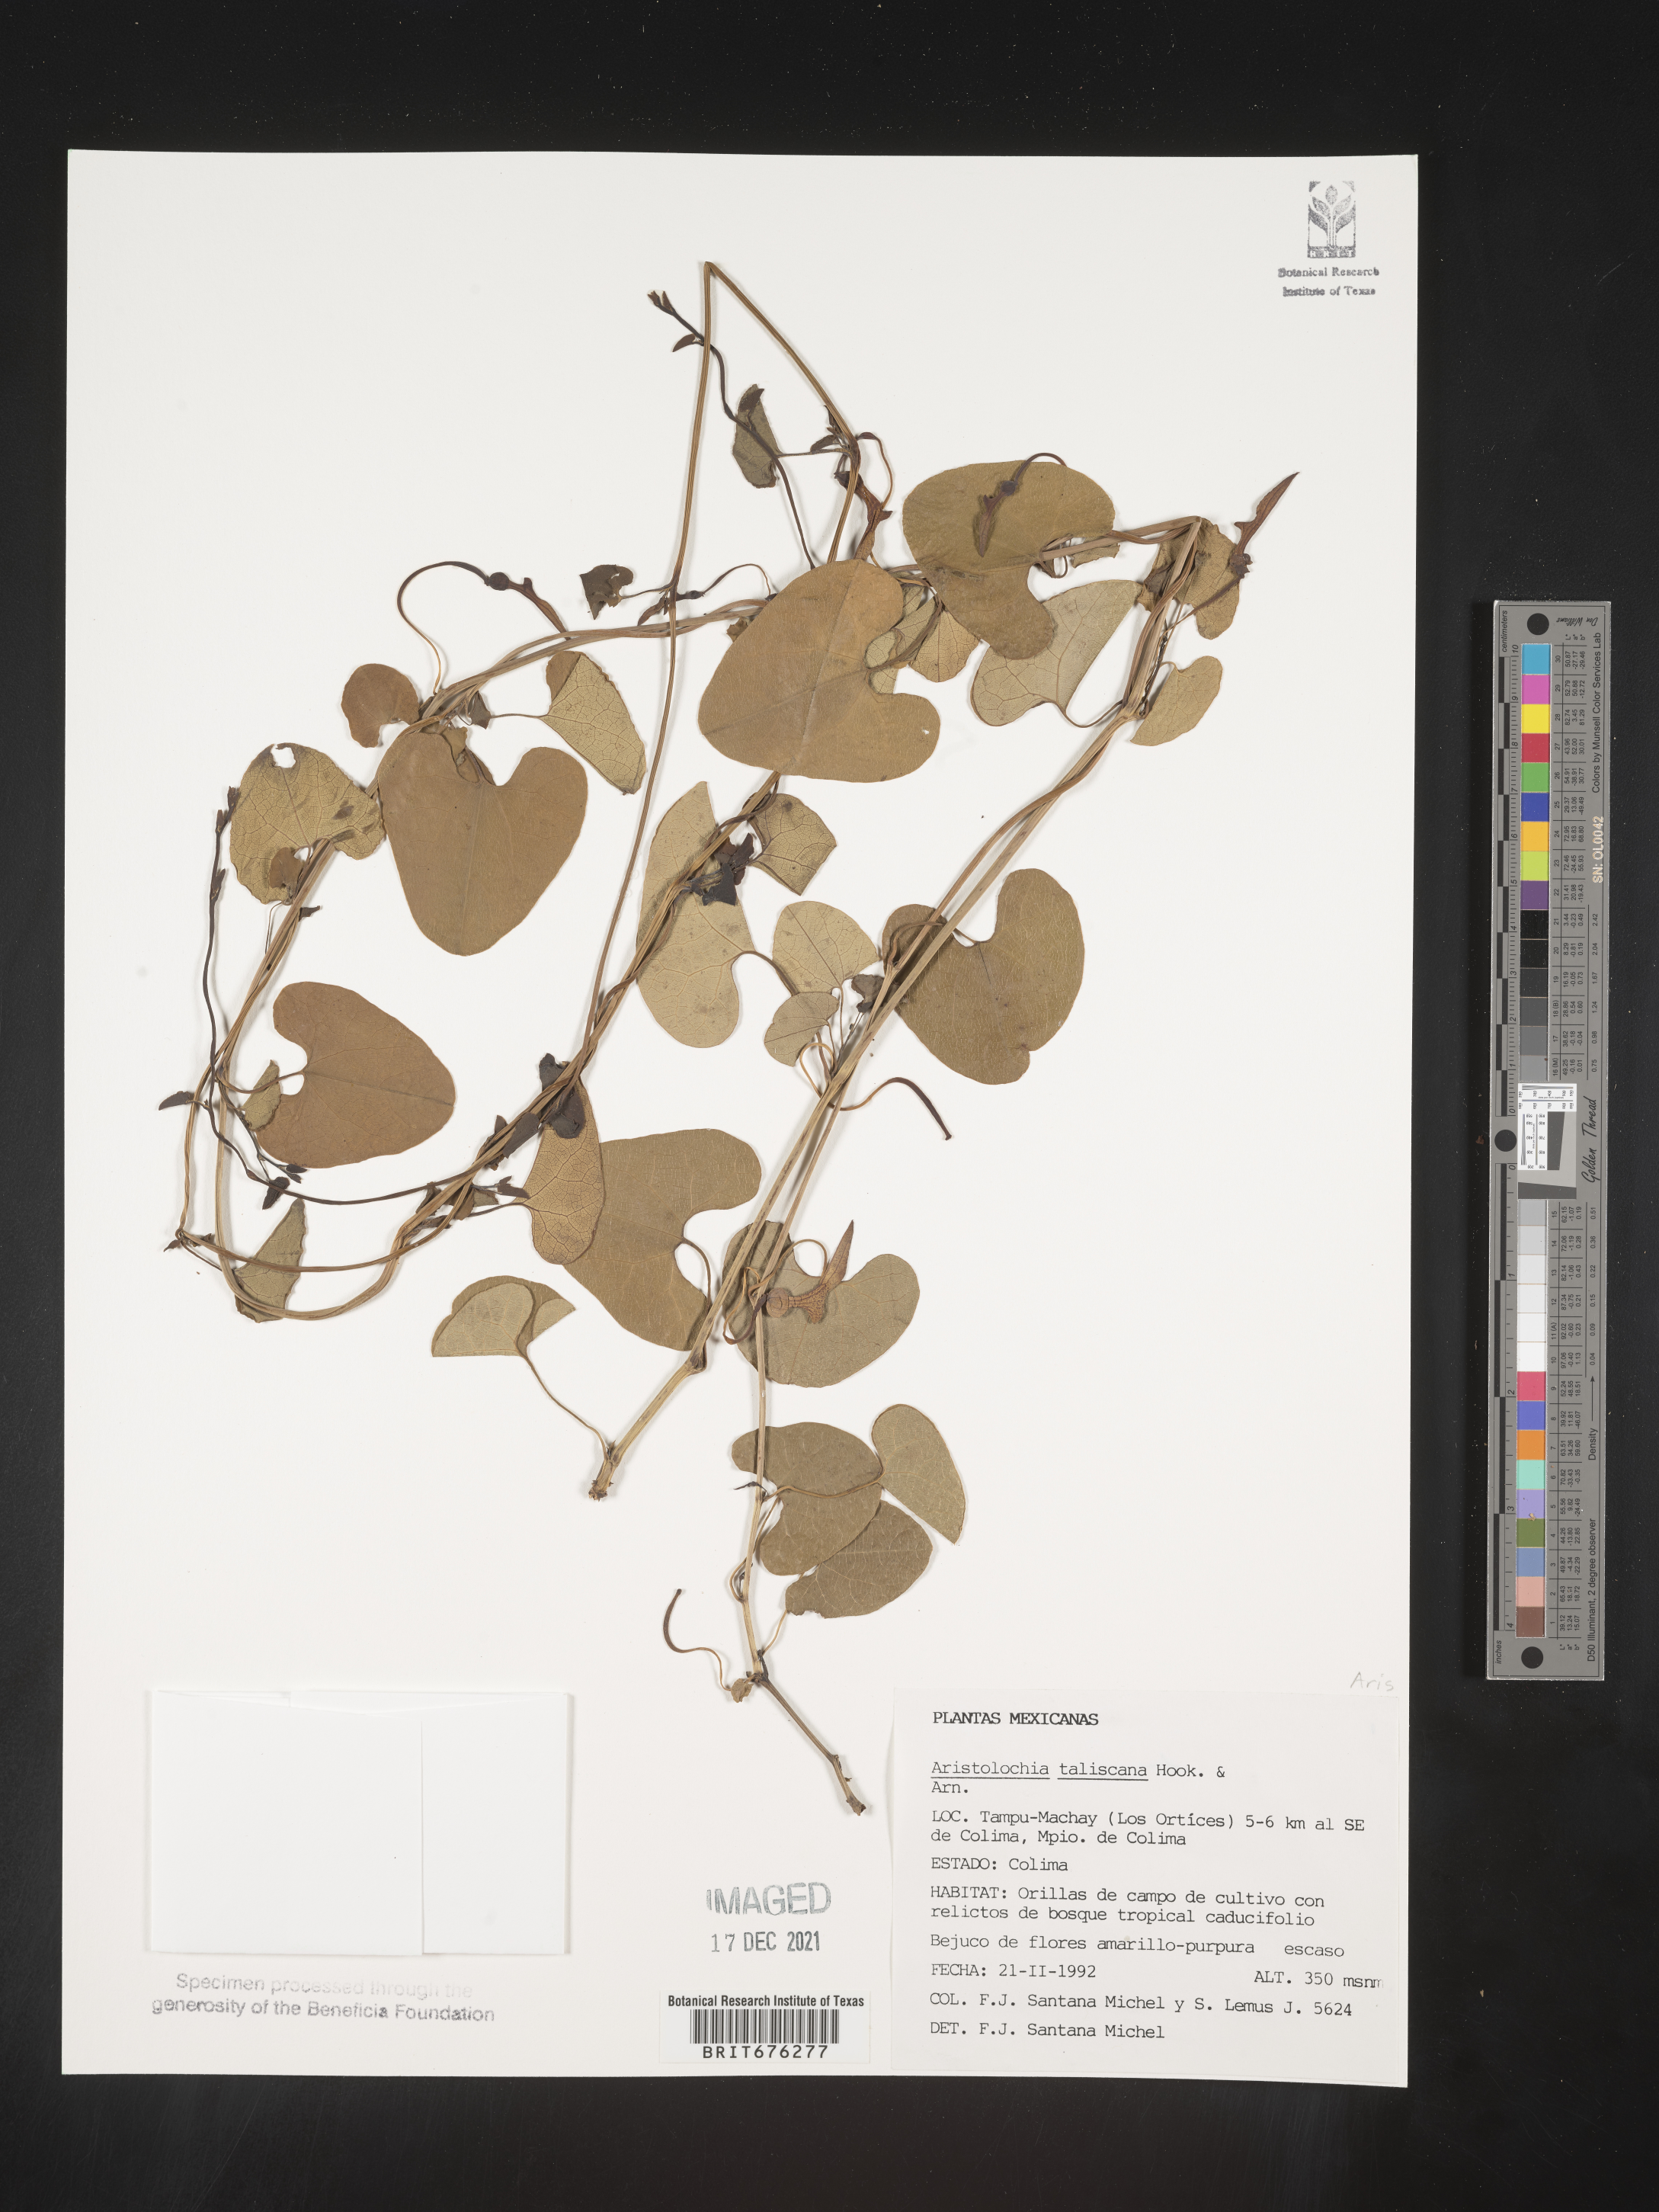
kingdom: Plantae
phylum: Tracheophyta
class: Magnoliopsida
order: Piperales
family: Aristolochiaceae
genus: Aristolochia
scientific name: Aristolochia
